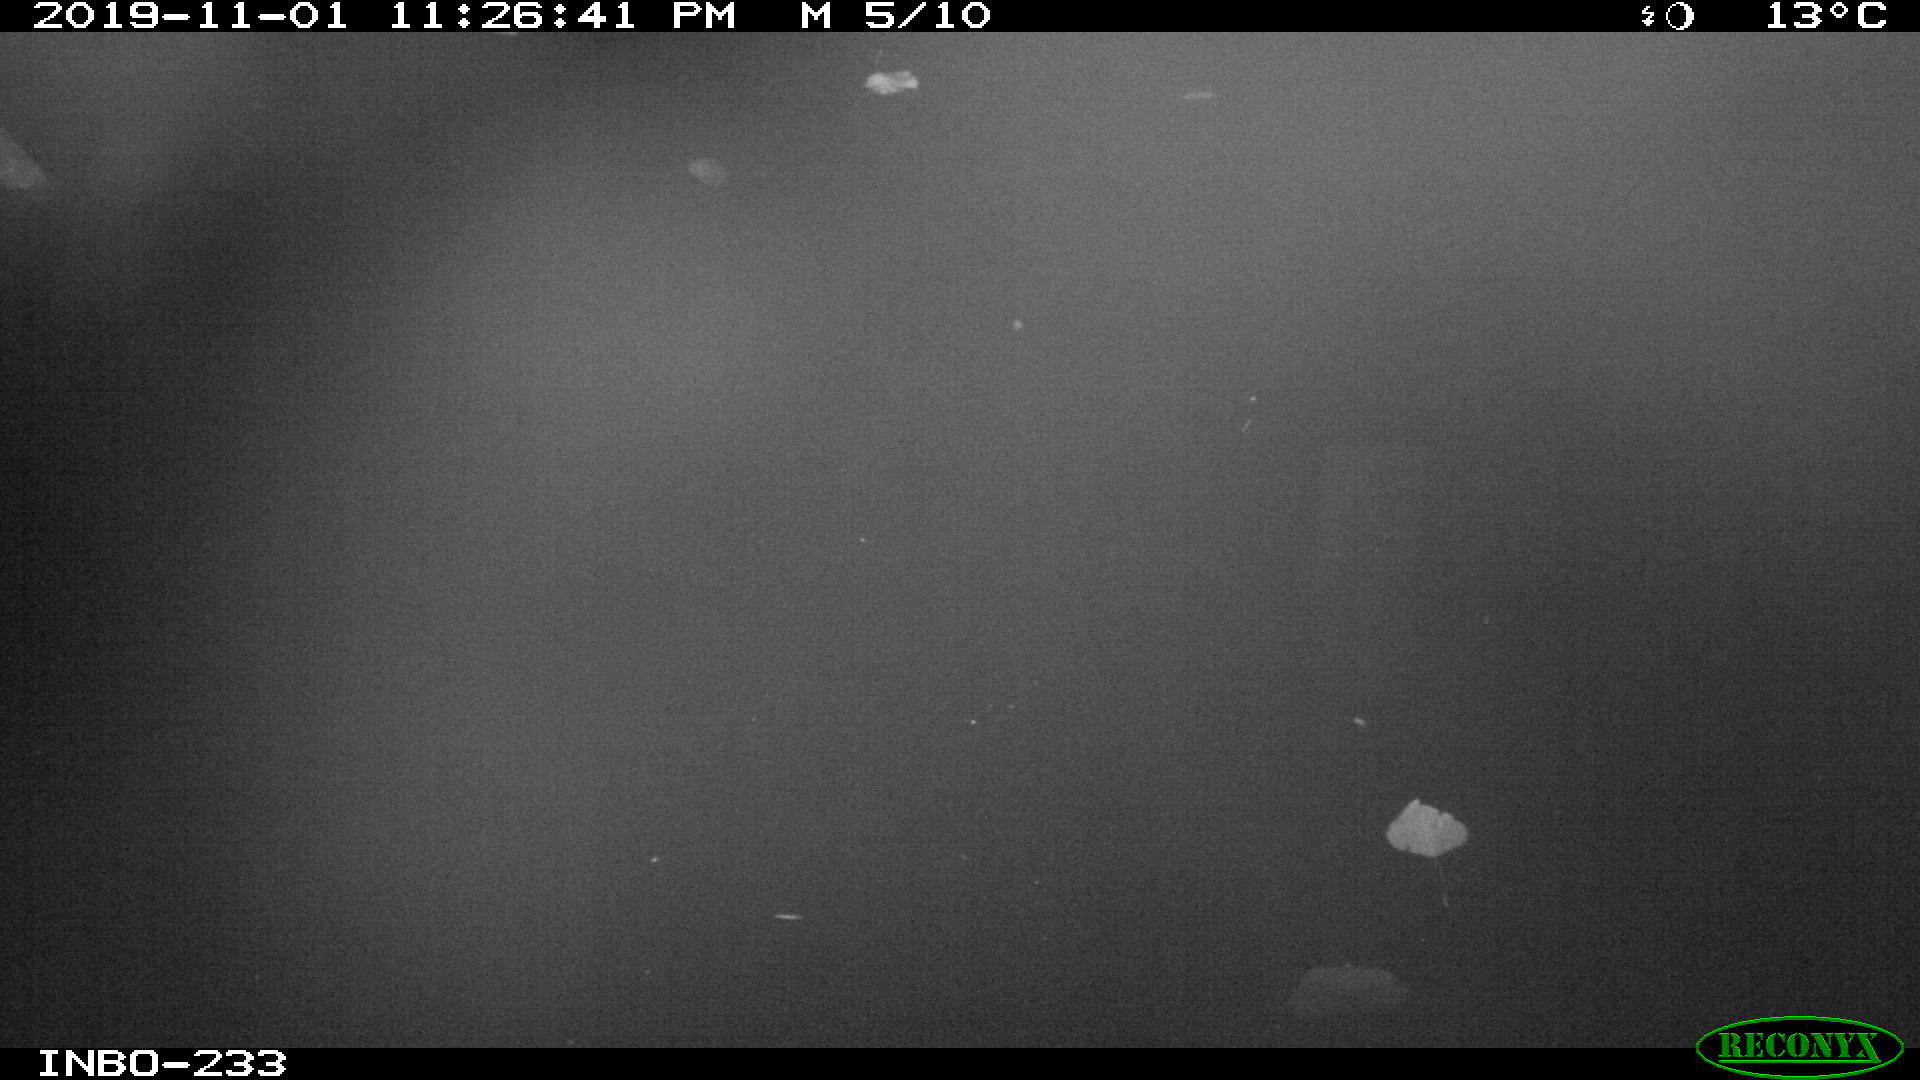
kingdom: Animalia
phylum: Chordata
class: Aves
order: Anseriformes
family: Anatidae
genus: Anas
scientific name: Anas platyrhynchos
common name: Mallard
